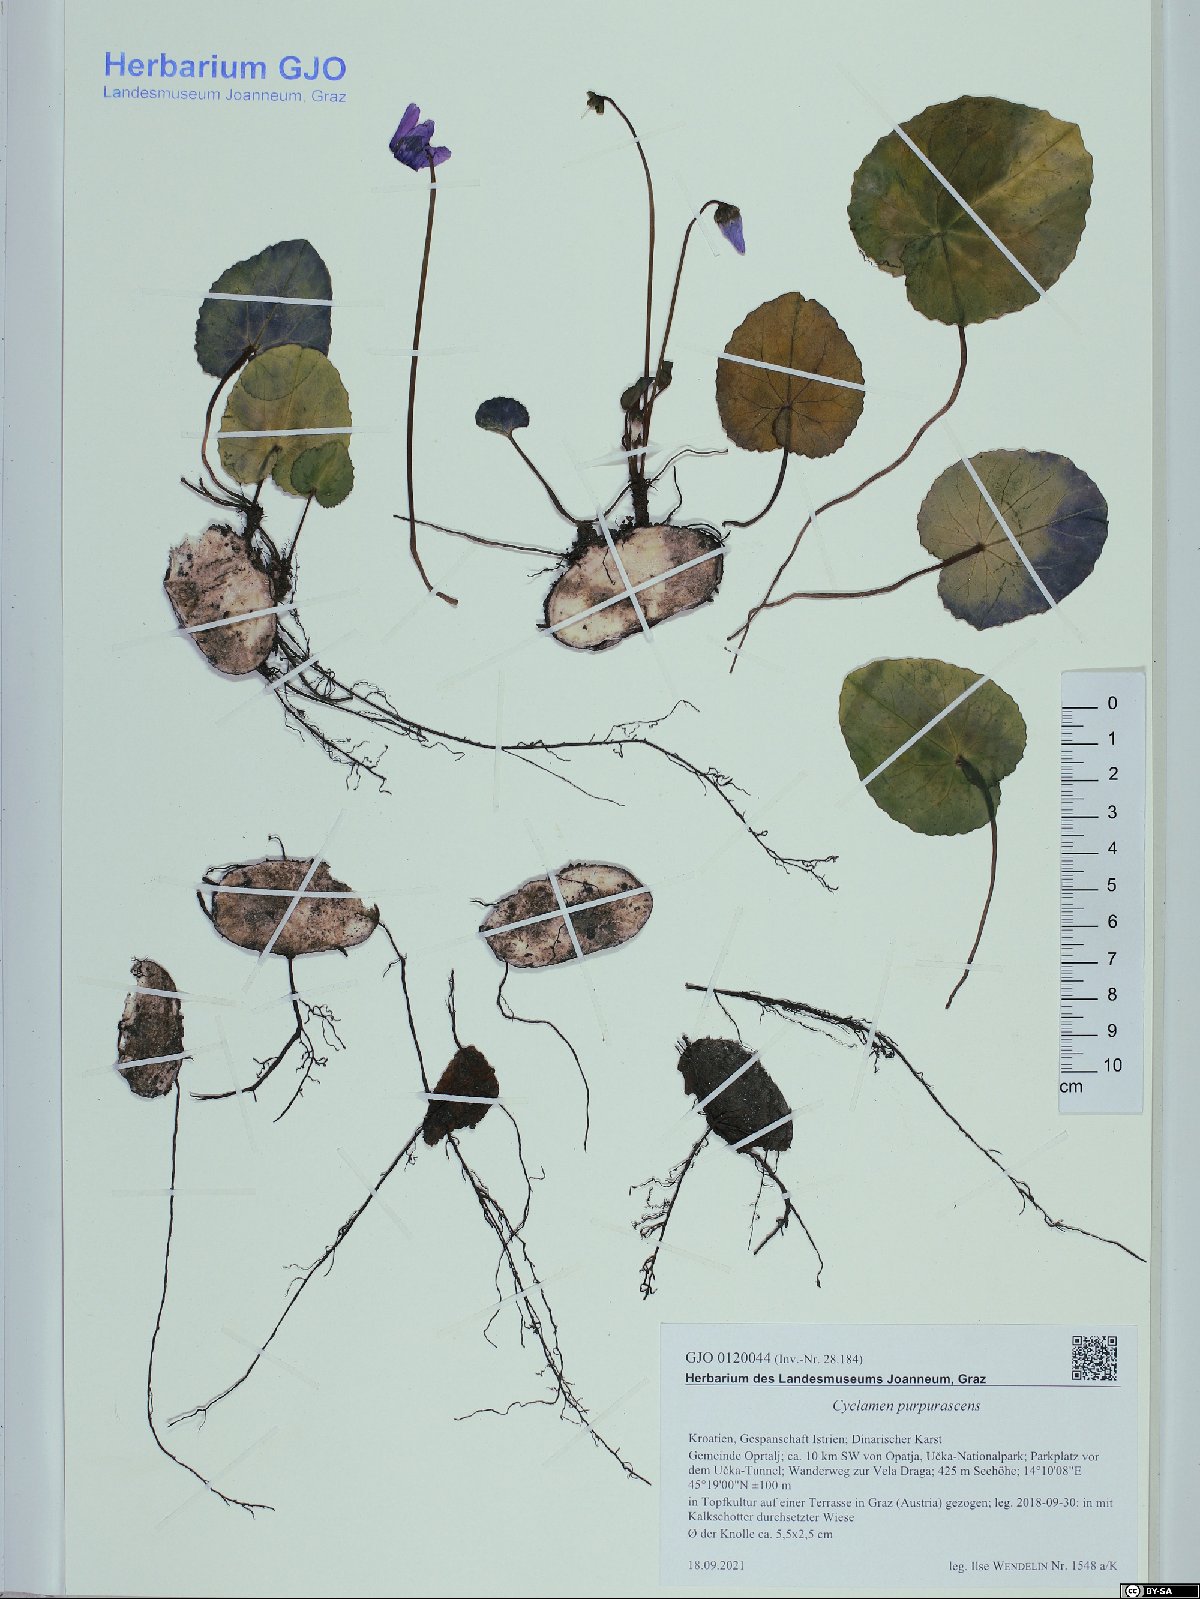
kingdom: Plantae
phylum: Tracheophyta
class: Magnoliopsida
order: Ericales
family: Primulaceae
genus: Cyclamen
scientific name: Cyclamen purpurascens
